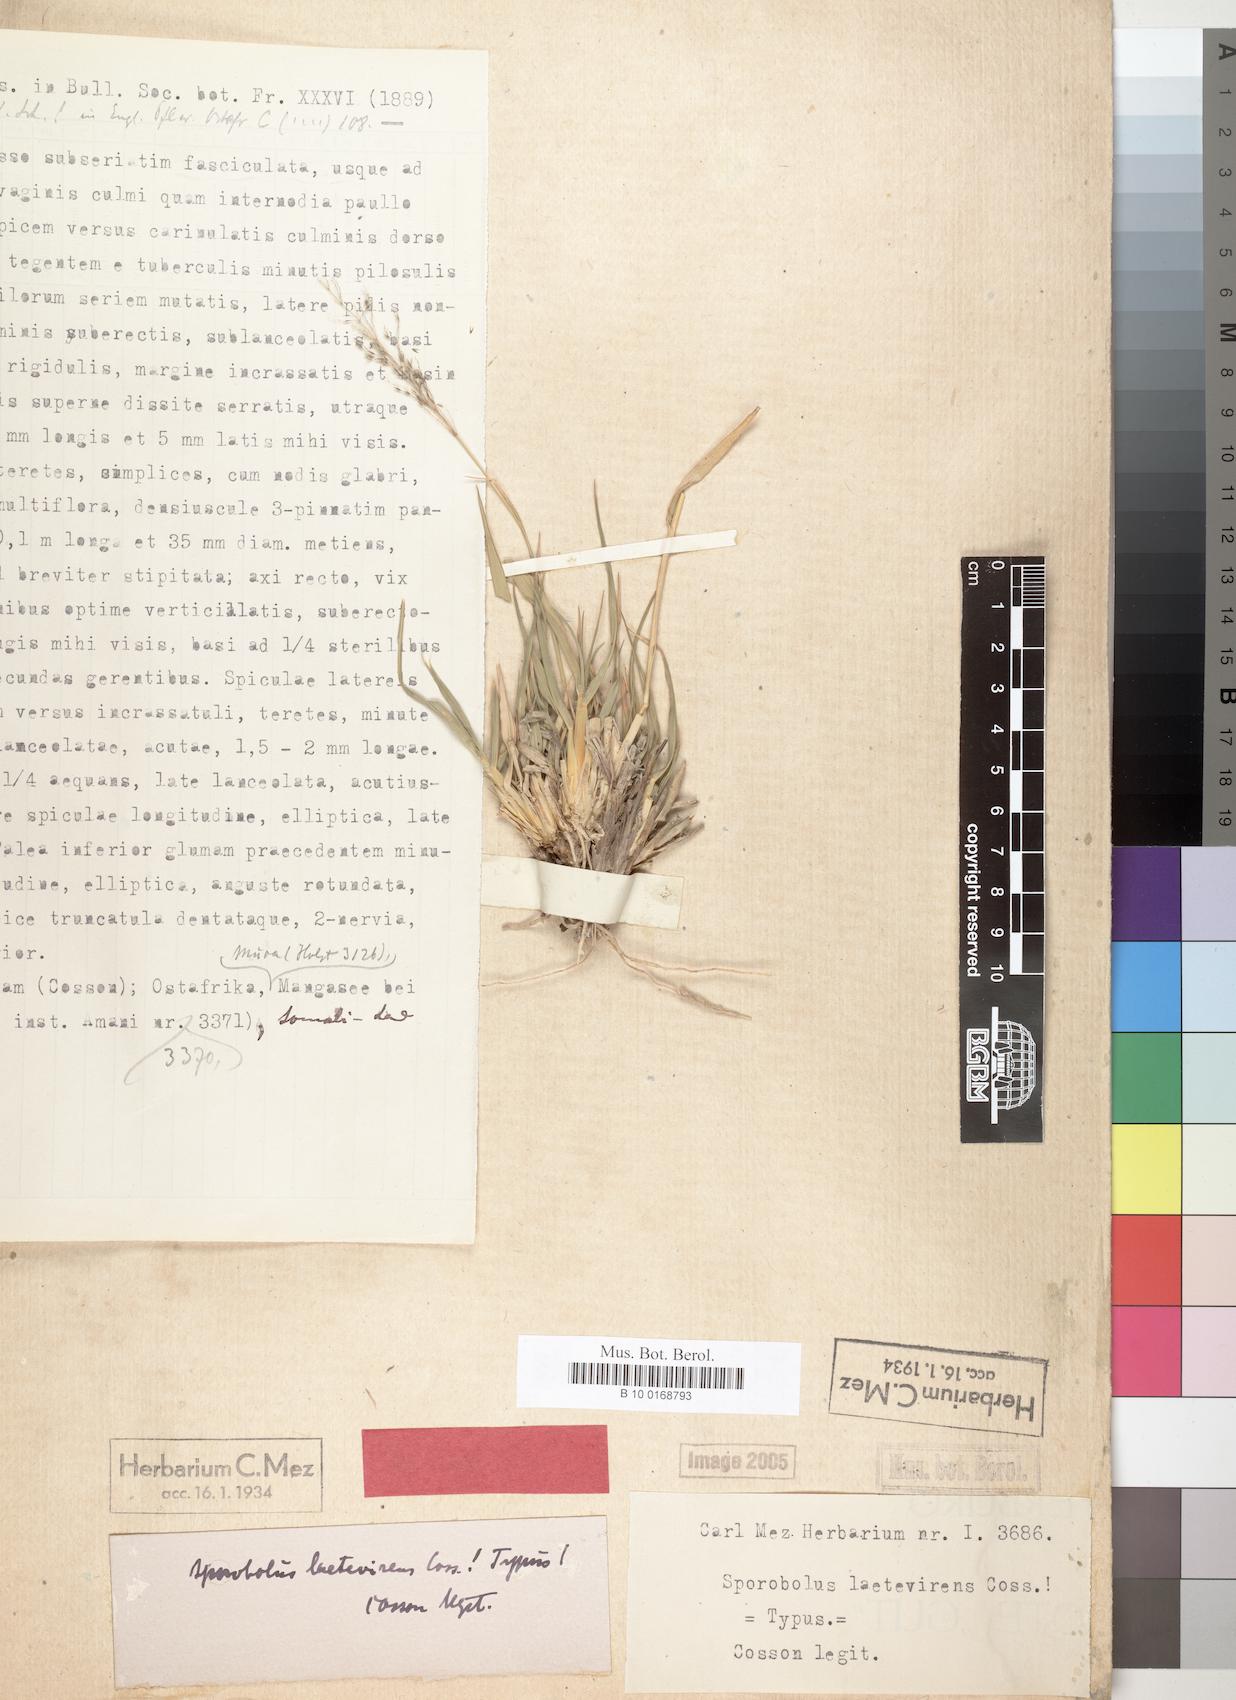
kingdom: Plantae
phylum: Tracheophyta
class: Liliopsida
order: Poales
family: Poaceae
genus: Sporobolus
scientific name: Sporobolus ioclados
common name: Pan dropseed
